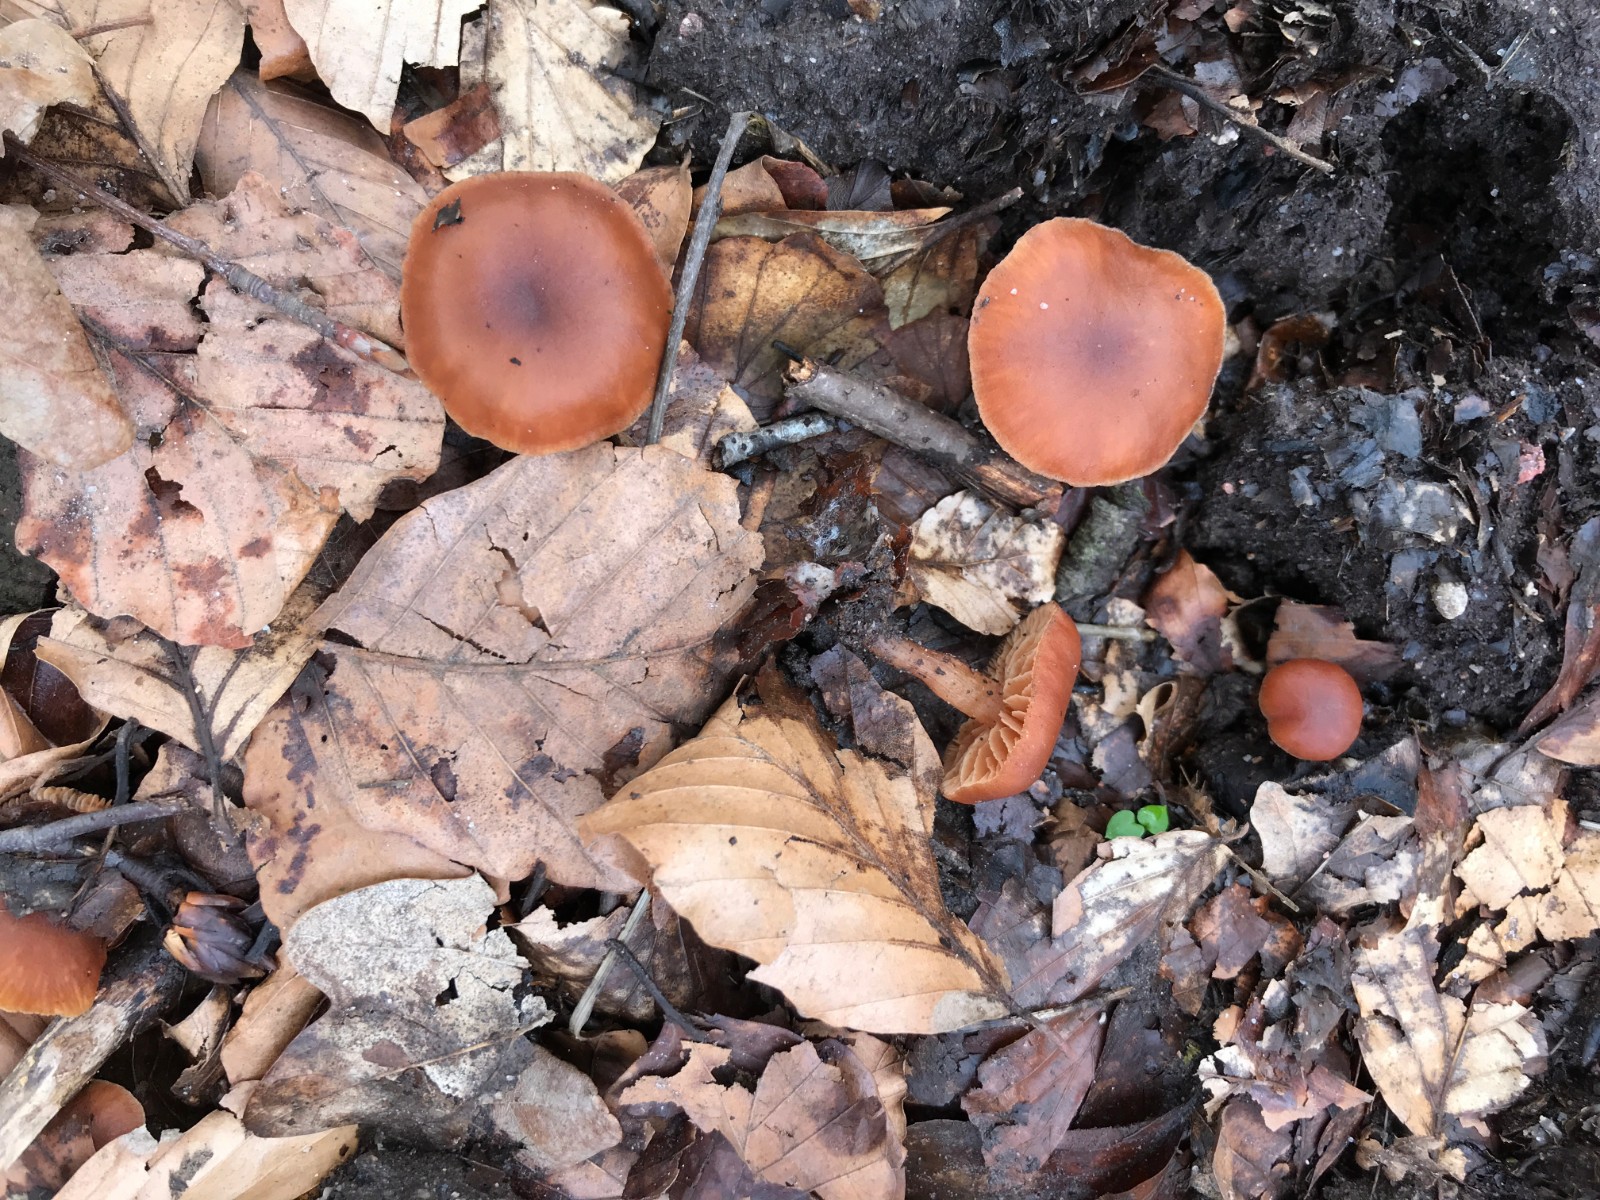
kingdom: Fungi
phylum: Basidiomycota
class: Agaricomycetes
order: Agaricales
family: Tubariaceae
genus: Tubaria
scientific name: Tubaria furfuracea
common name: kliddet fnughat
